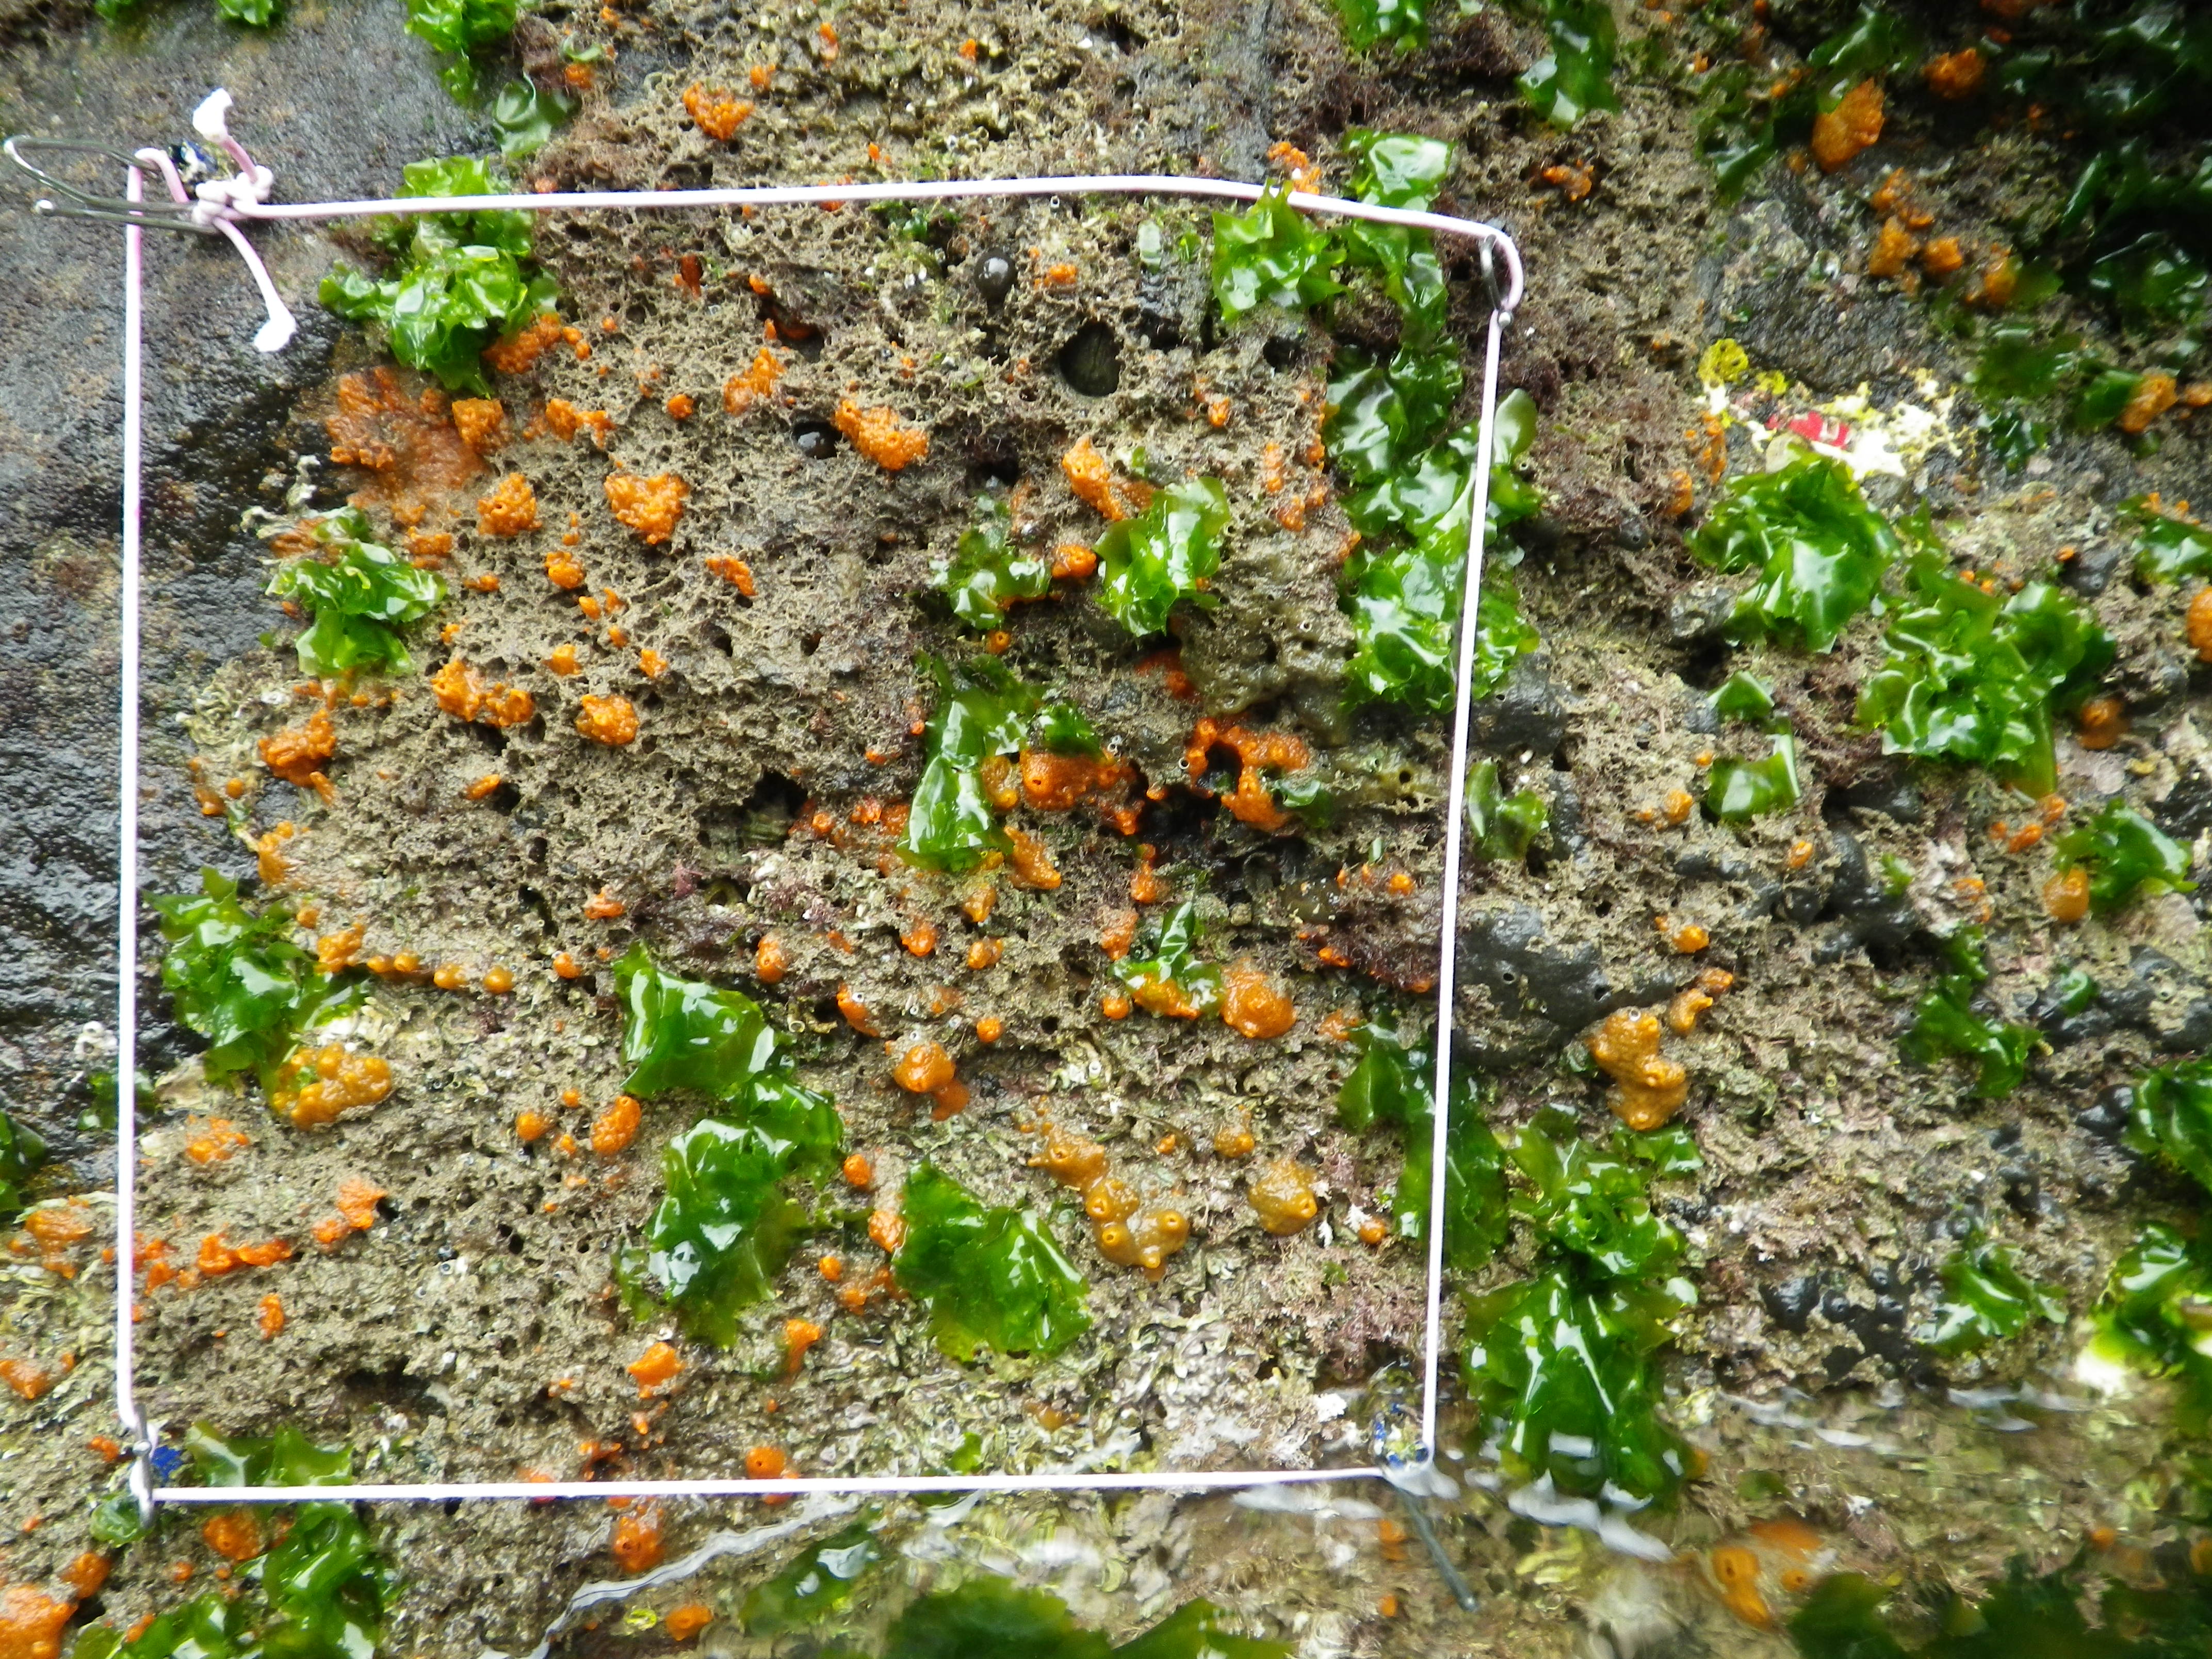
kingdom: Animalia
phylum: Arthropoda
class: Maxillopoda
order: Sessilia
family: Chthamalidae
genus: Chthamalus
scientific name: Chthamalus challengeri
